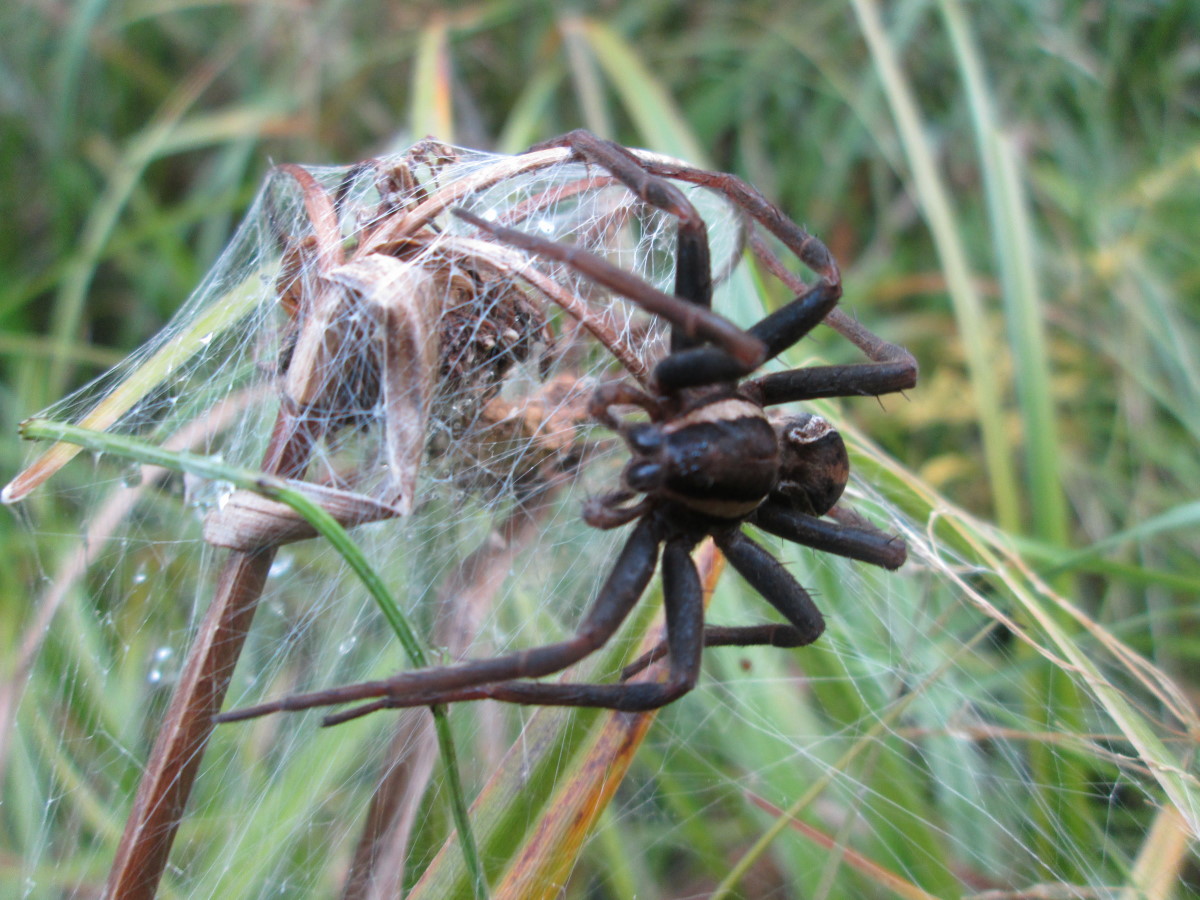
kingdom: Animalia
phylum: Arthropoda
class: Arachnida
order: Araneae
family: Pisauridae
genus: Dolomedes
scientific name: Dolomedes fimbriatus
